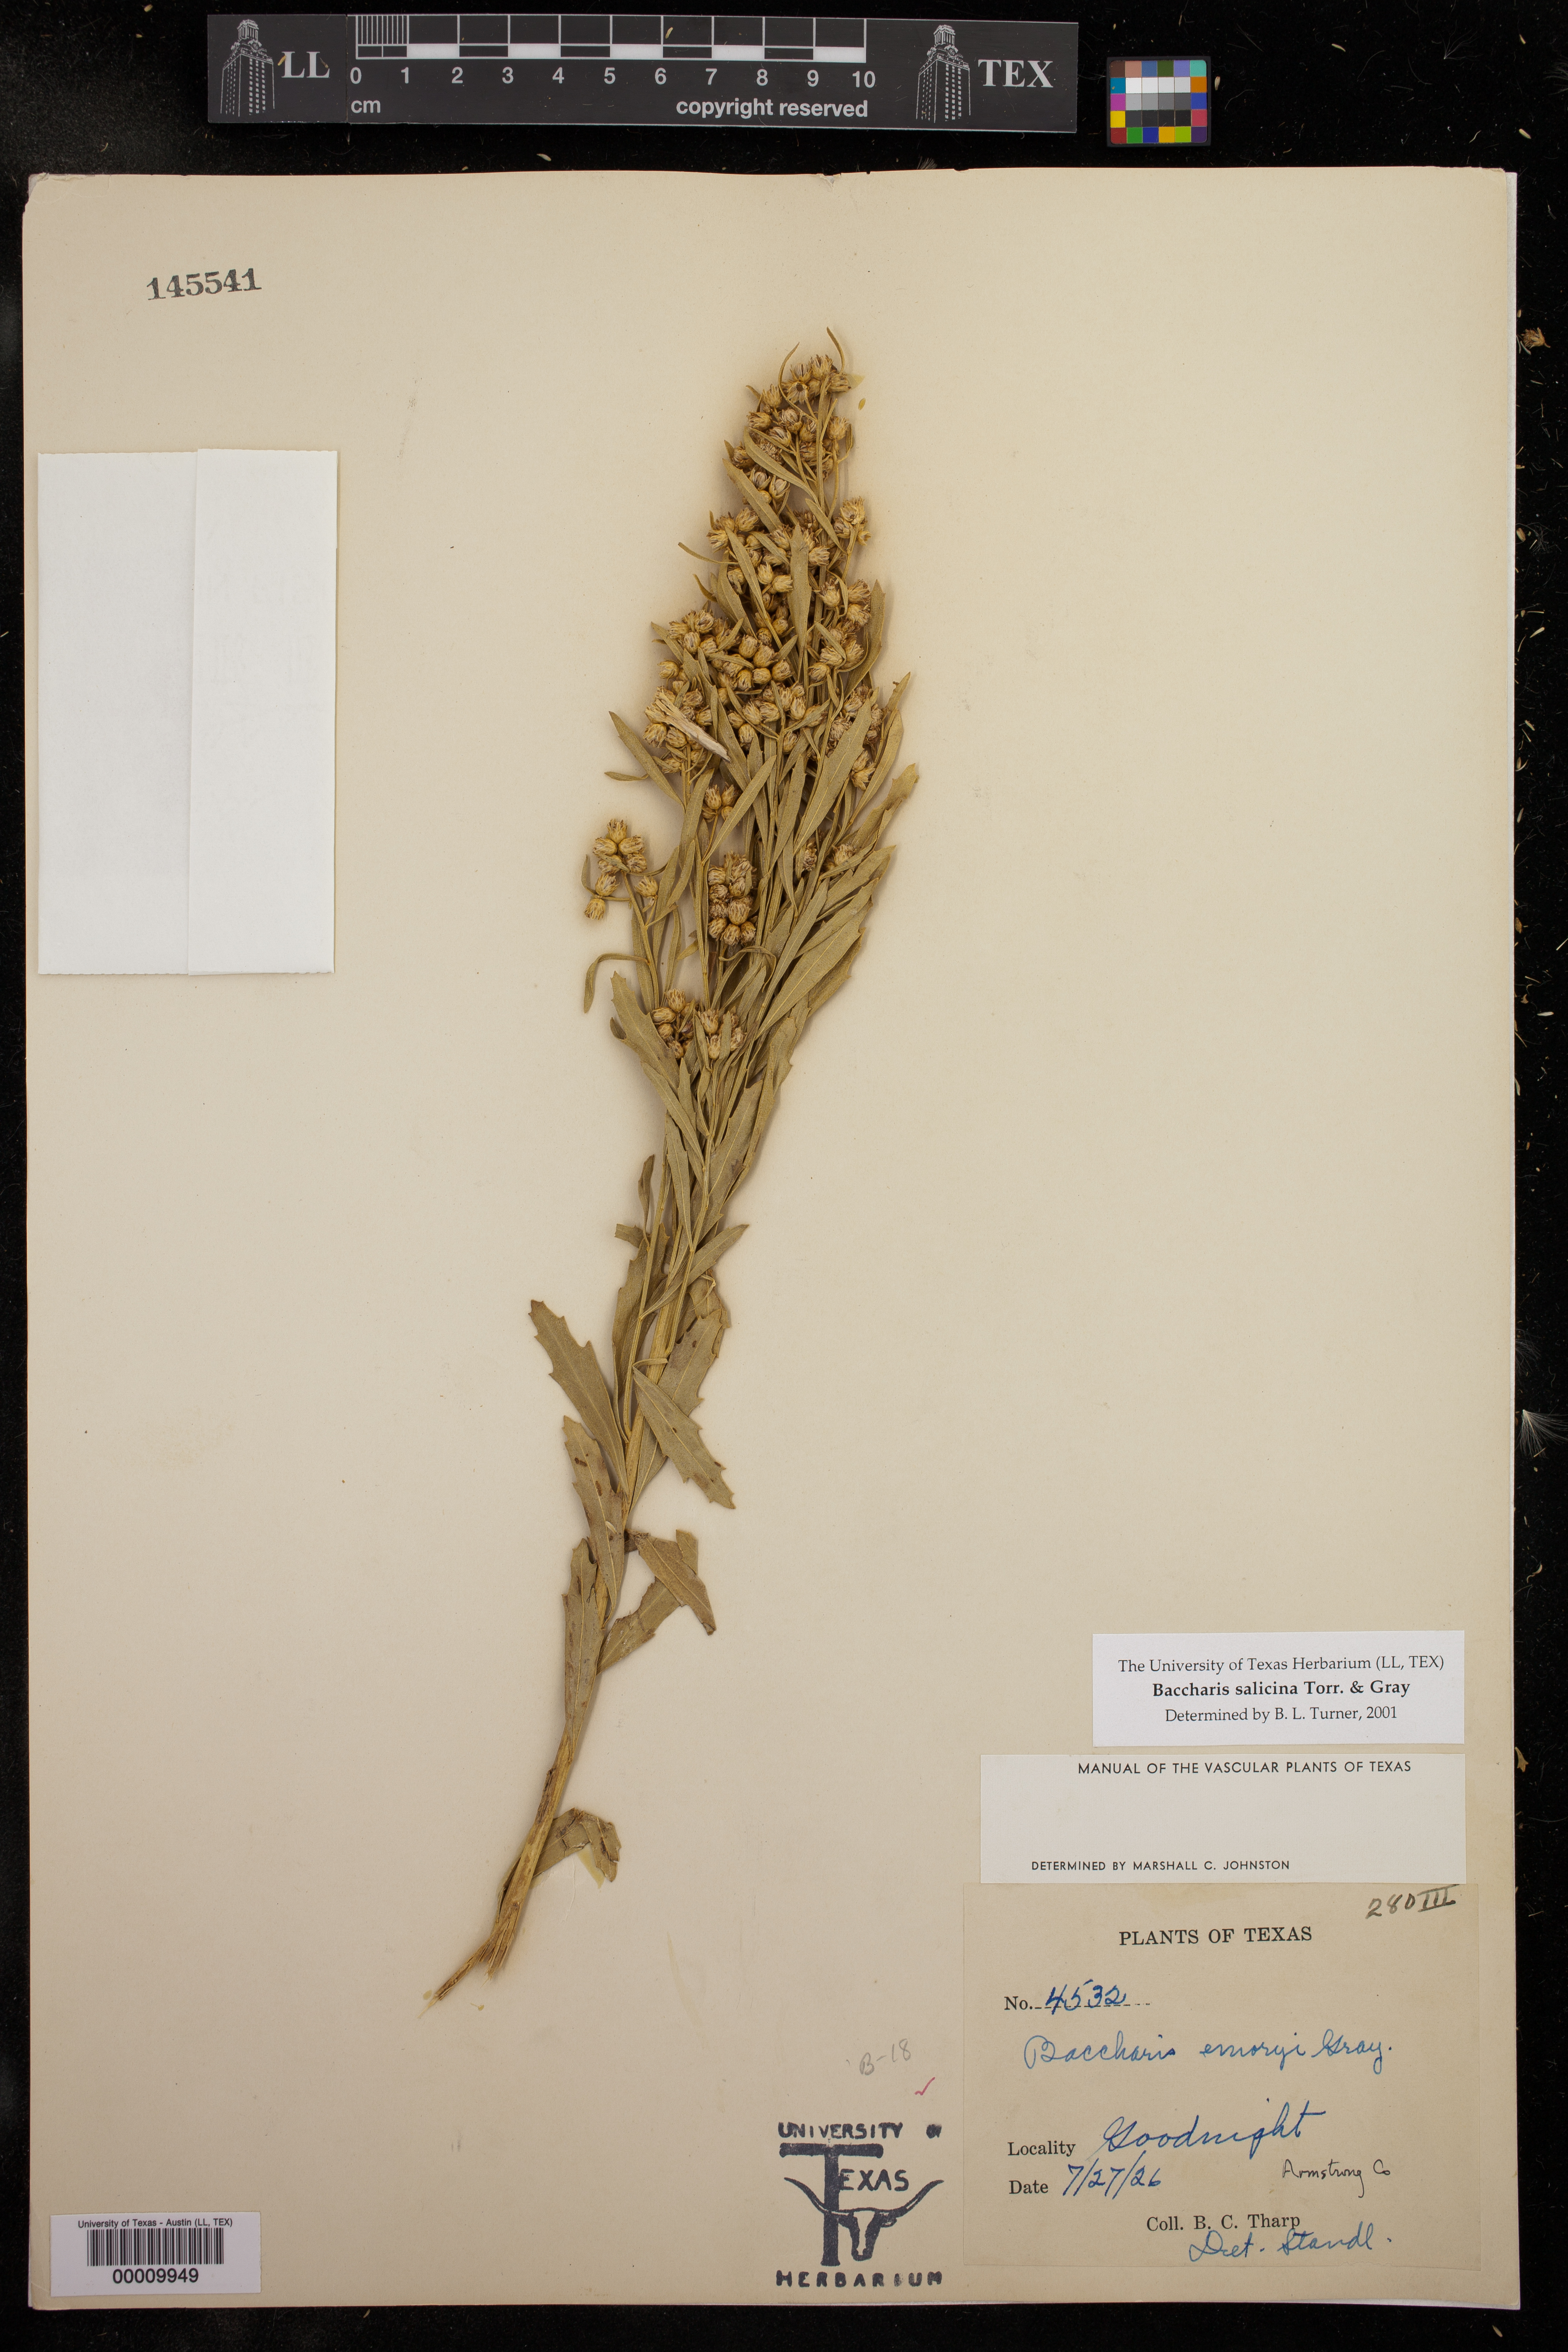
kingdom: Plantae
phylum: Tracheophyta
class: Magnoliopsida
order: Asterales
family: Asteraceae
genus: Baccharis
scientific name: Baccharis salicina
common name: Willow baccharis
